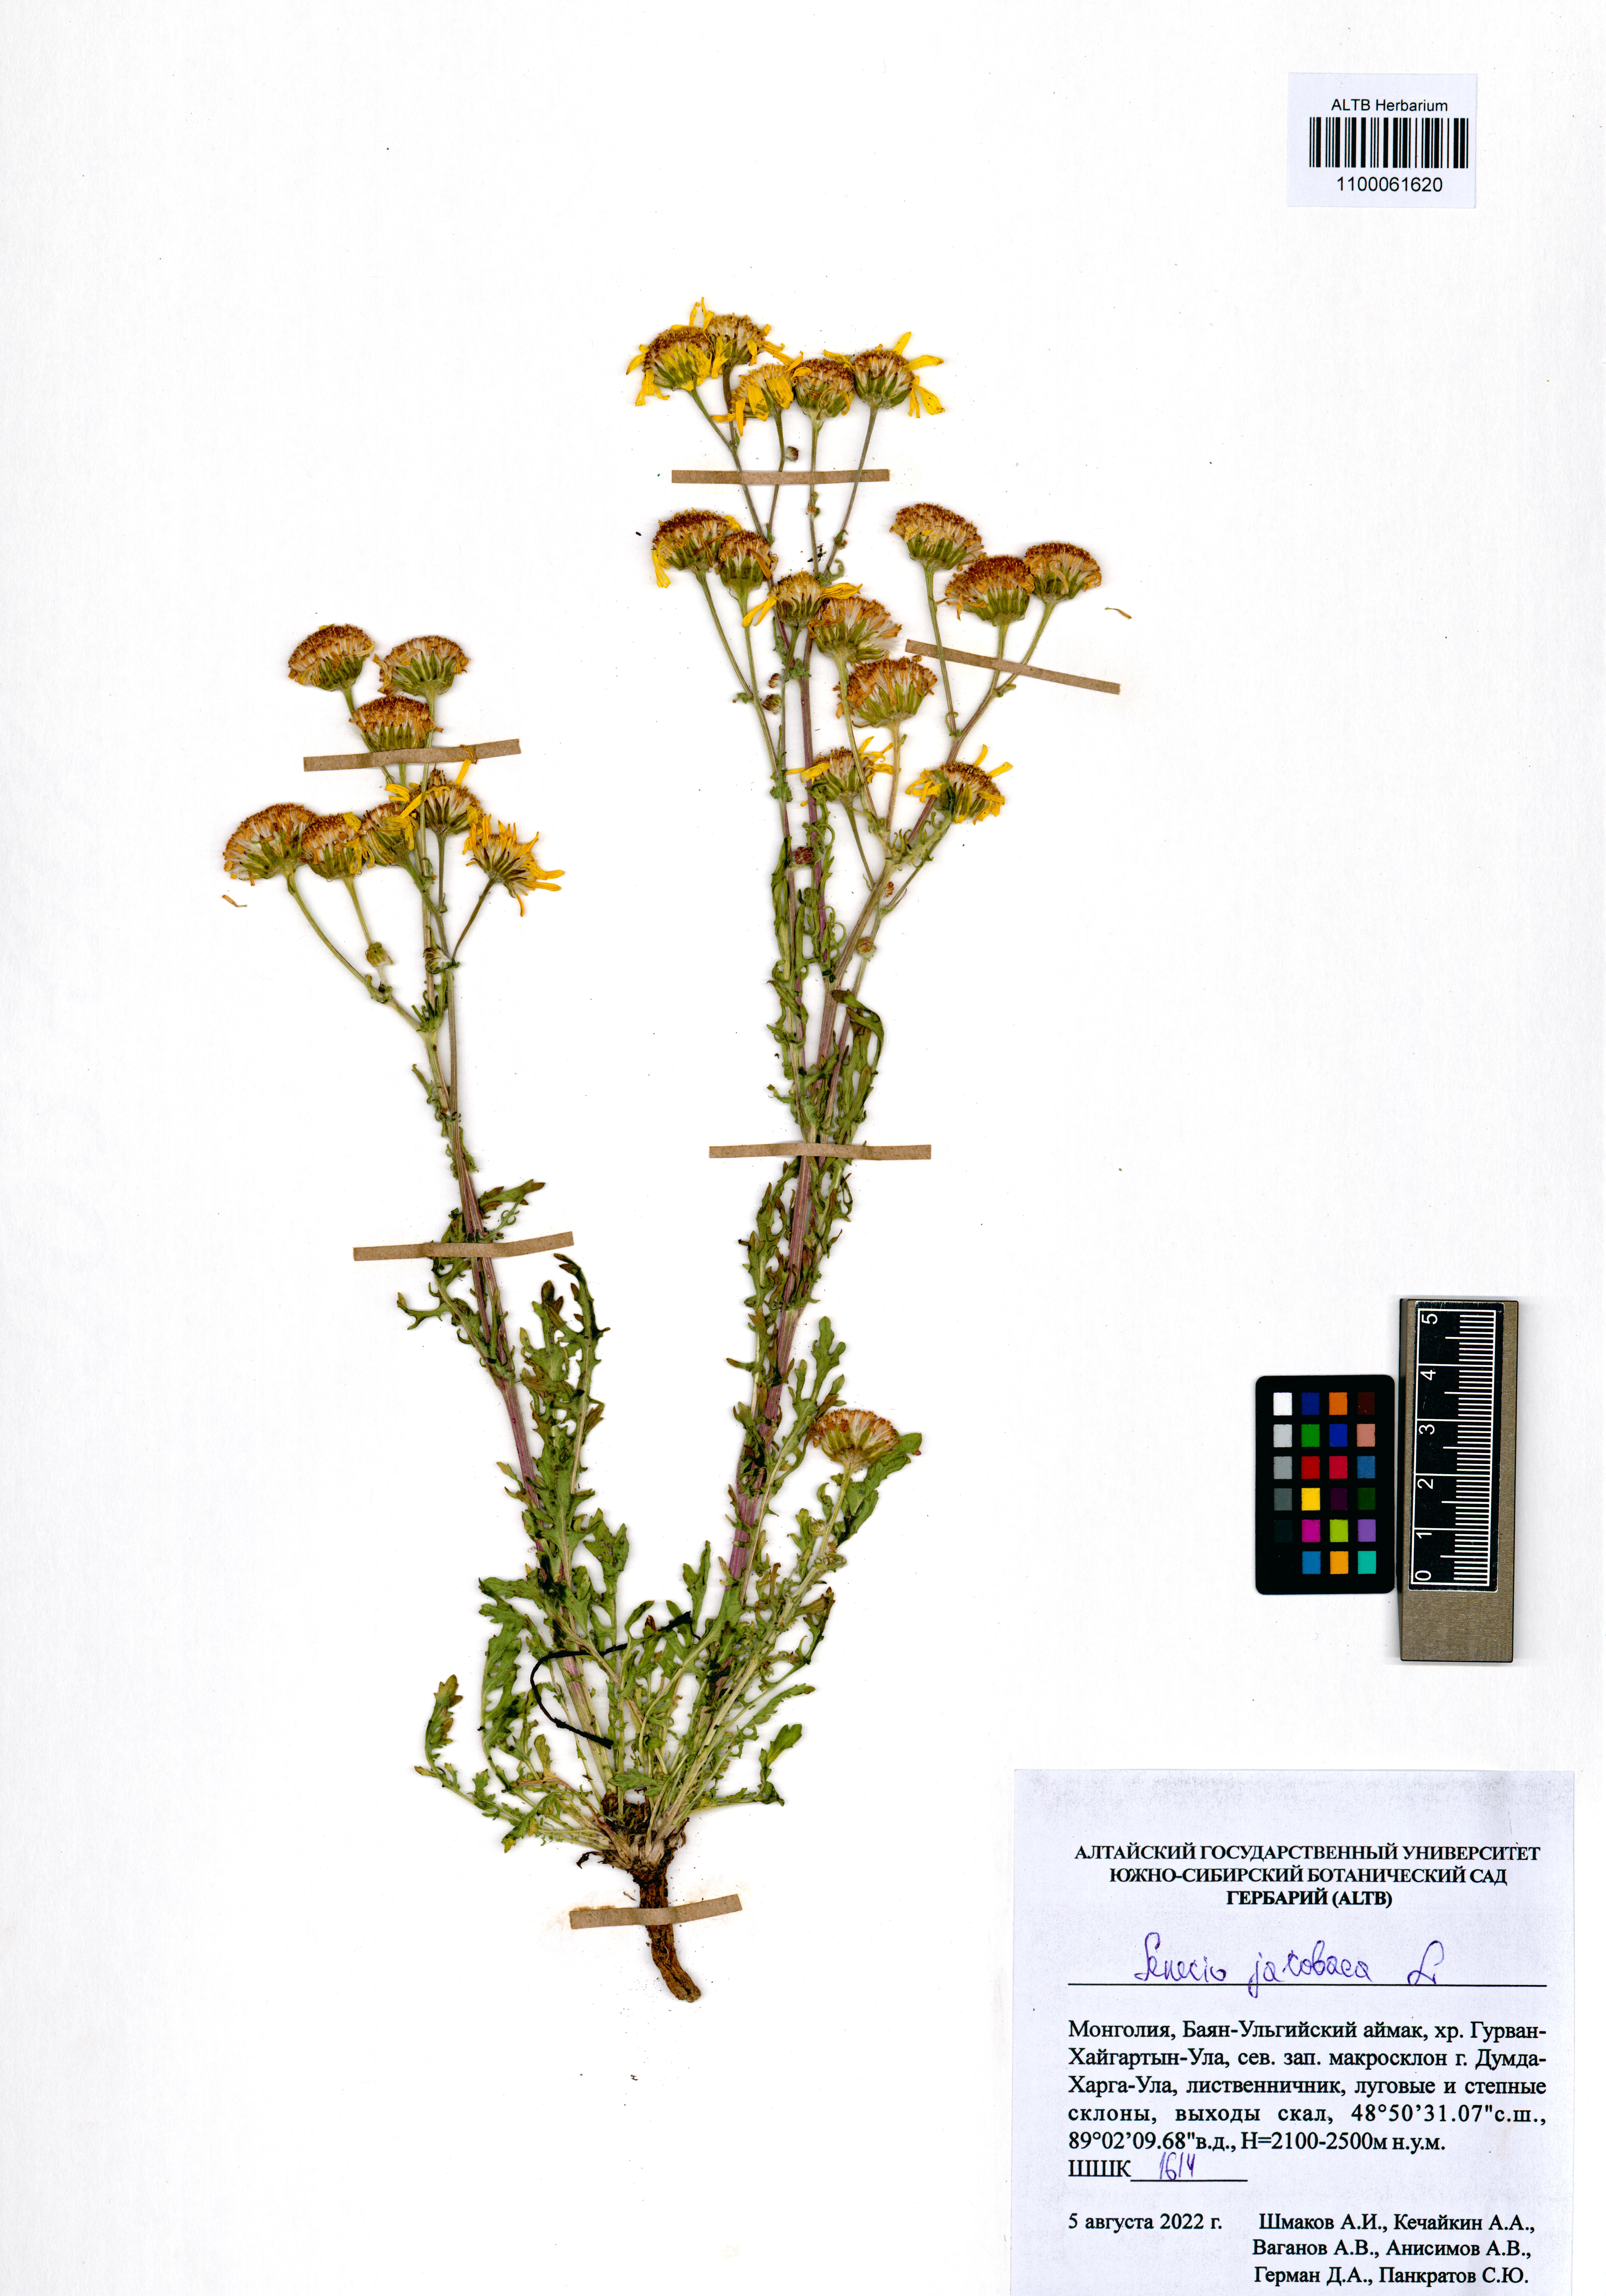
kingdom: Plantae
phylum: Tracheophyta
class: Magnoliopsida
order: Asterales
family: Asteraceae
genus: Jacobaea
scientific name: Jacobaea vulgaris
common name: Stinking willie
